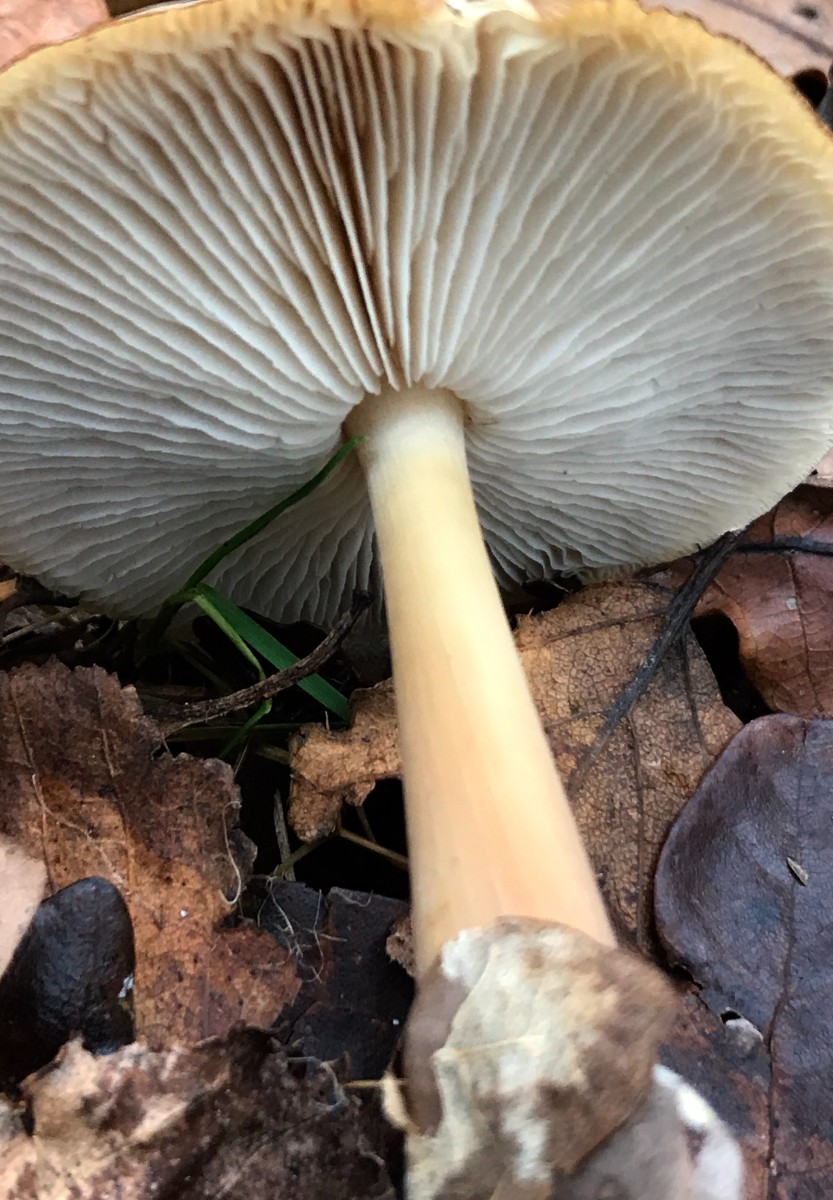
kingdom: Fungi
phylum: Basidiomycota
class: Agaricomycetes
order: Agaricales
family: Omphalotaceae
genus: Rhodocollybia
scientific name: Rhodocollybia asema
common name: horngrå fladhat
